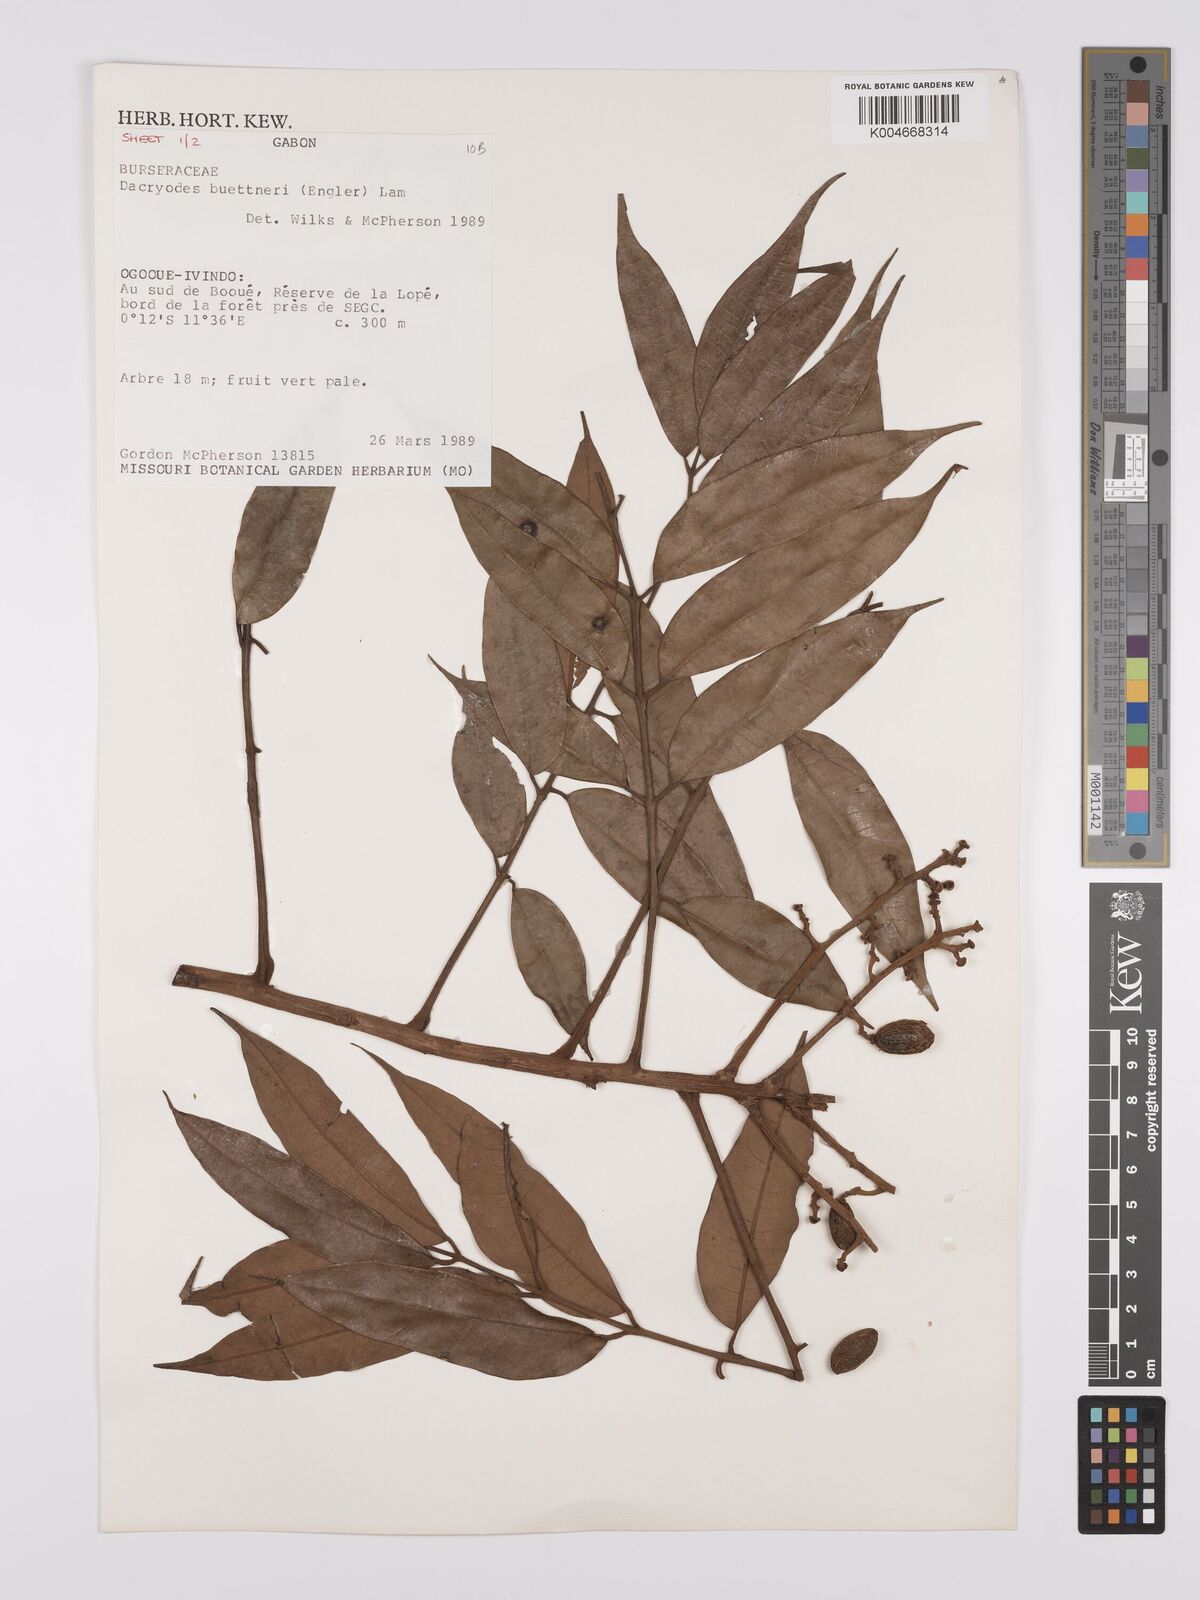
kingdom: Plantae
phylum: Tracheophyta
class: Magnoliopsida
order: Sapindales
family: Burseraceae
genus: Pachylobus
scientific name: Pachylobus buettneri
